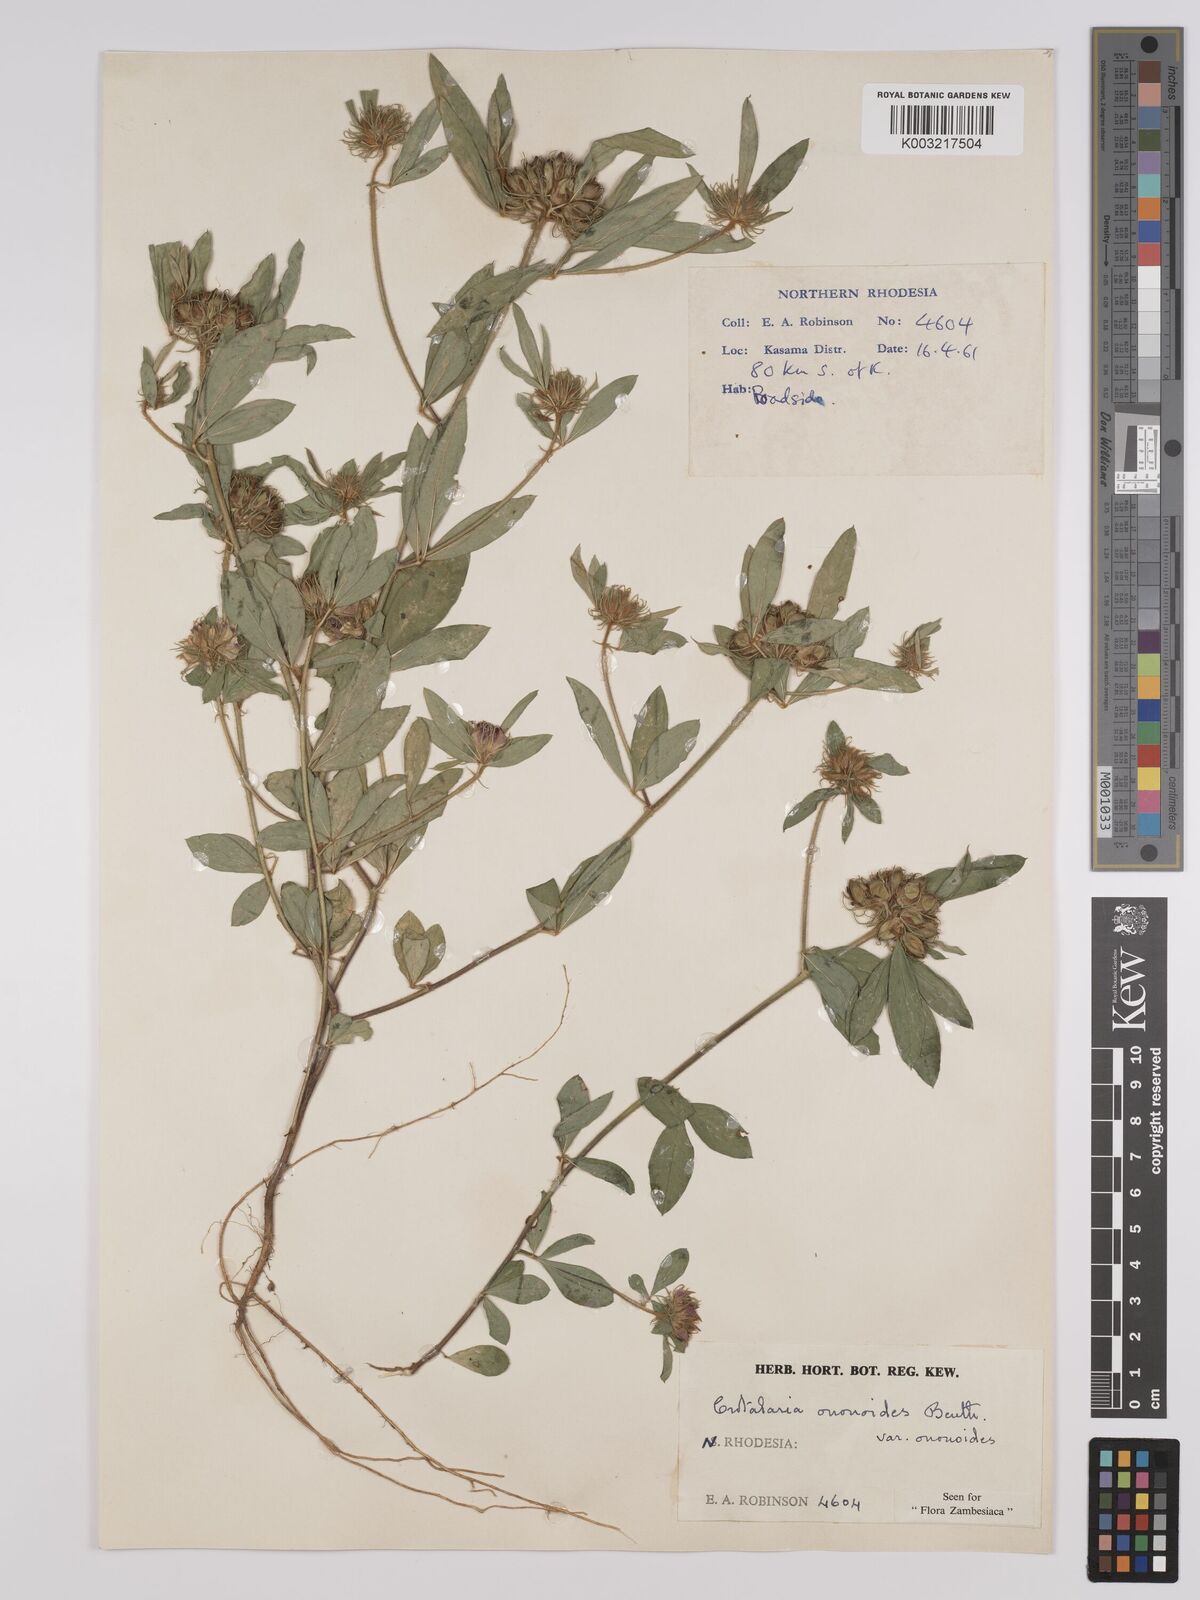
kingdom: Plantae
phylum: Tracheophyta
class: Magnoliopsida
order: Fabales
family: Fabaceae
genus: Crotalaria
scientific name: Crotalaria ononoides
